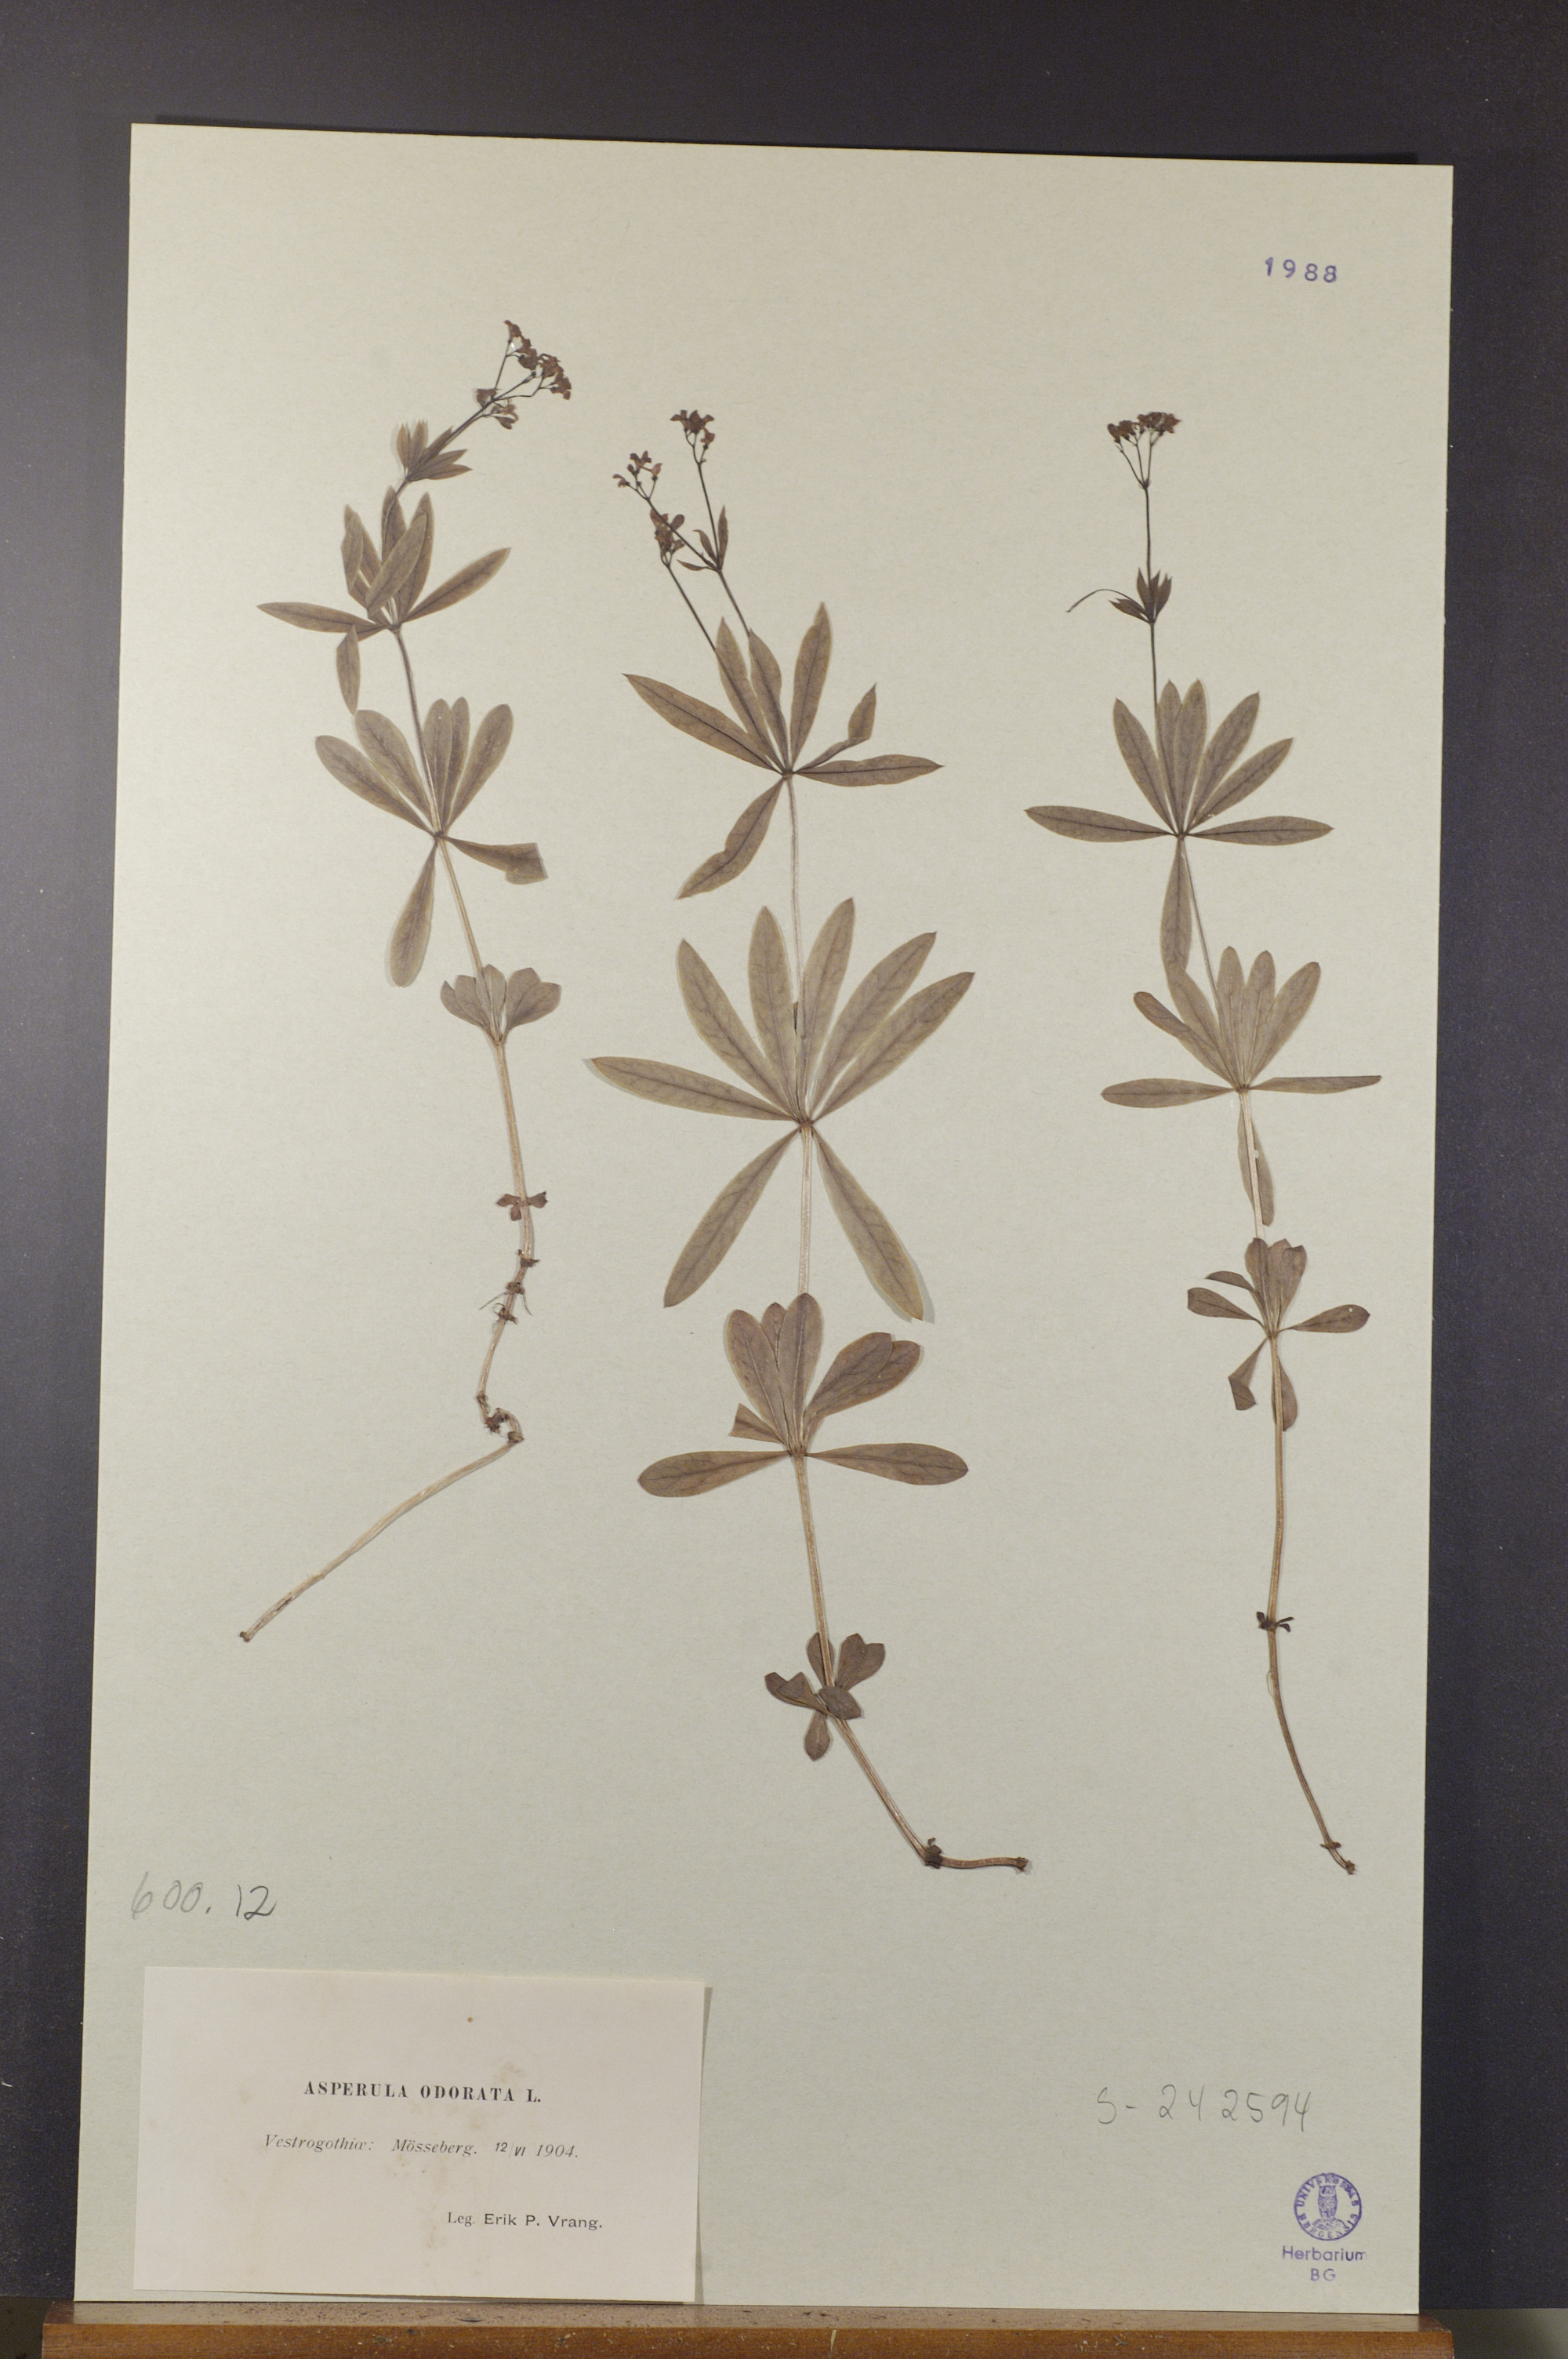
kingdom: Plantae
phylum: Tracheophyta
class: Magnoliopsida
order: Gentianales
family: Rubiaceae
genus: Galium
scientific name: Galium odoratum
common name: Sweet woodruff
